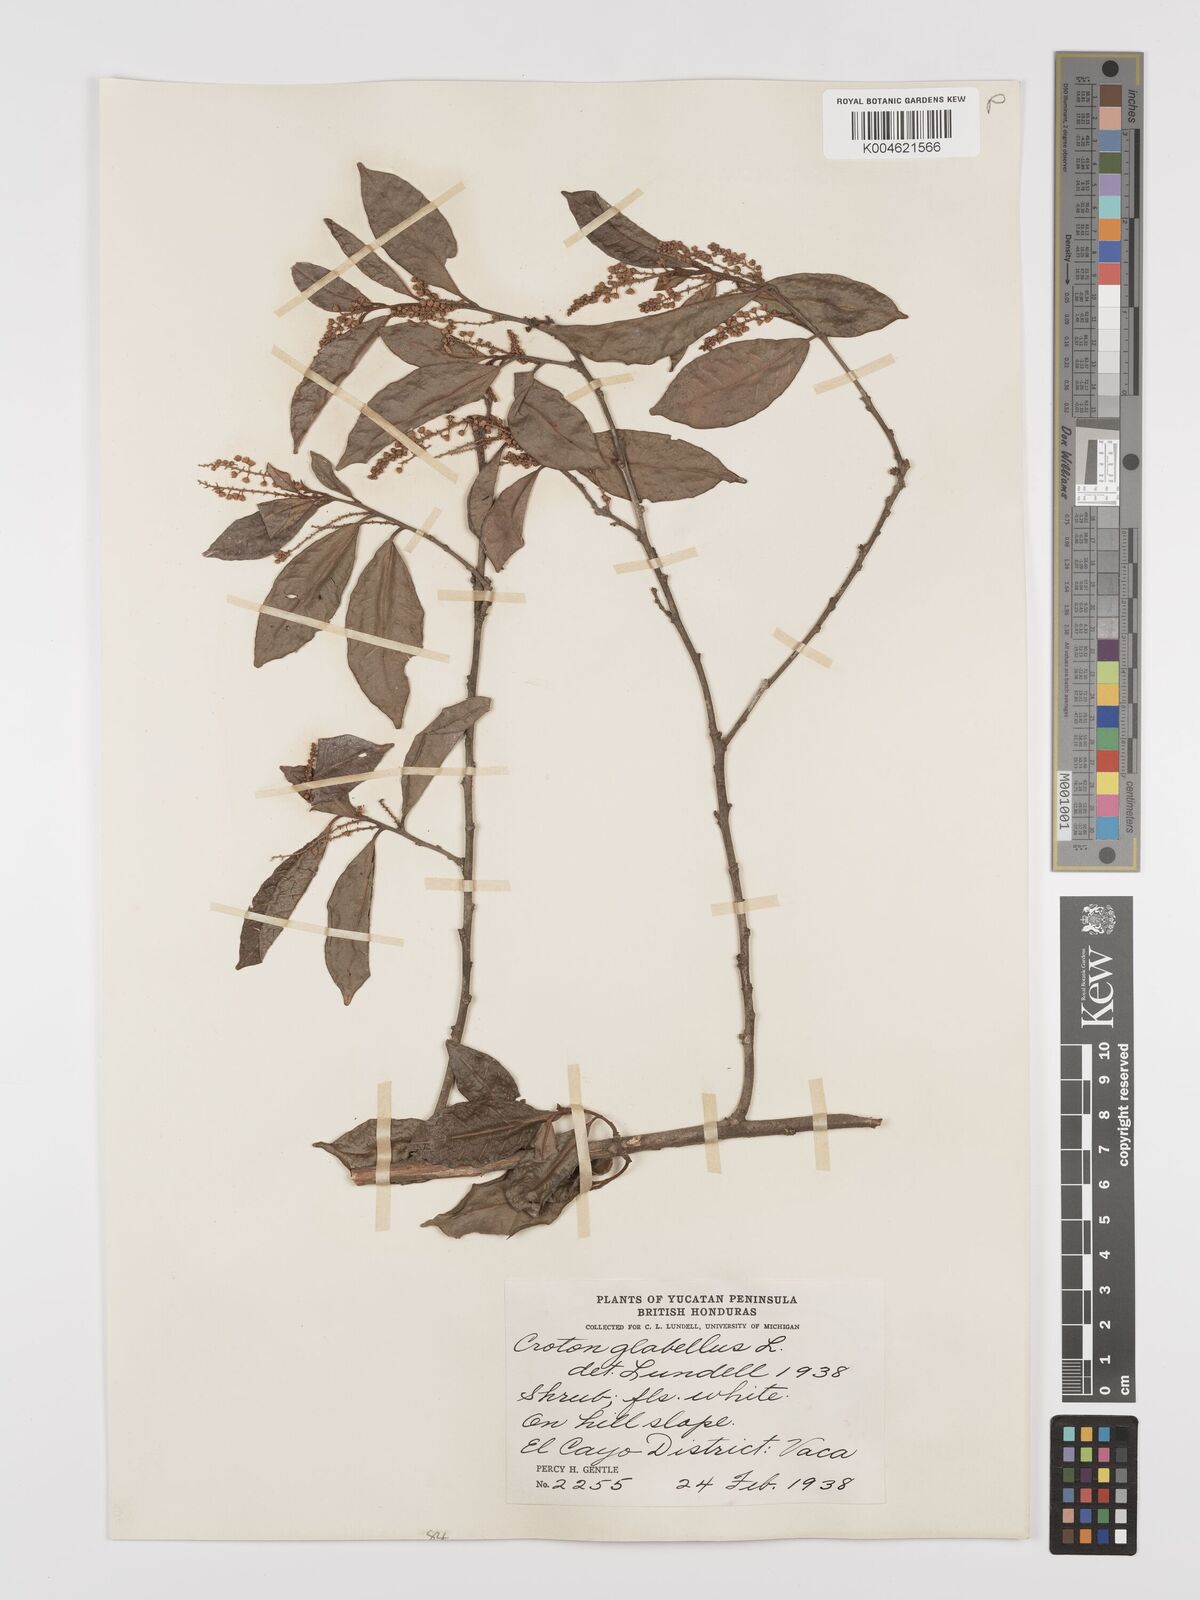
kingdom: Plantae
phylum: Tracheophyta
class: Magnoliopsida
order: Malpighiales
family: Euphorbiaceae
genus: Croton
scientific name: Croton glabellus
